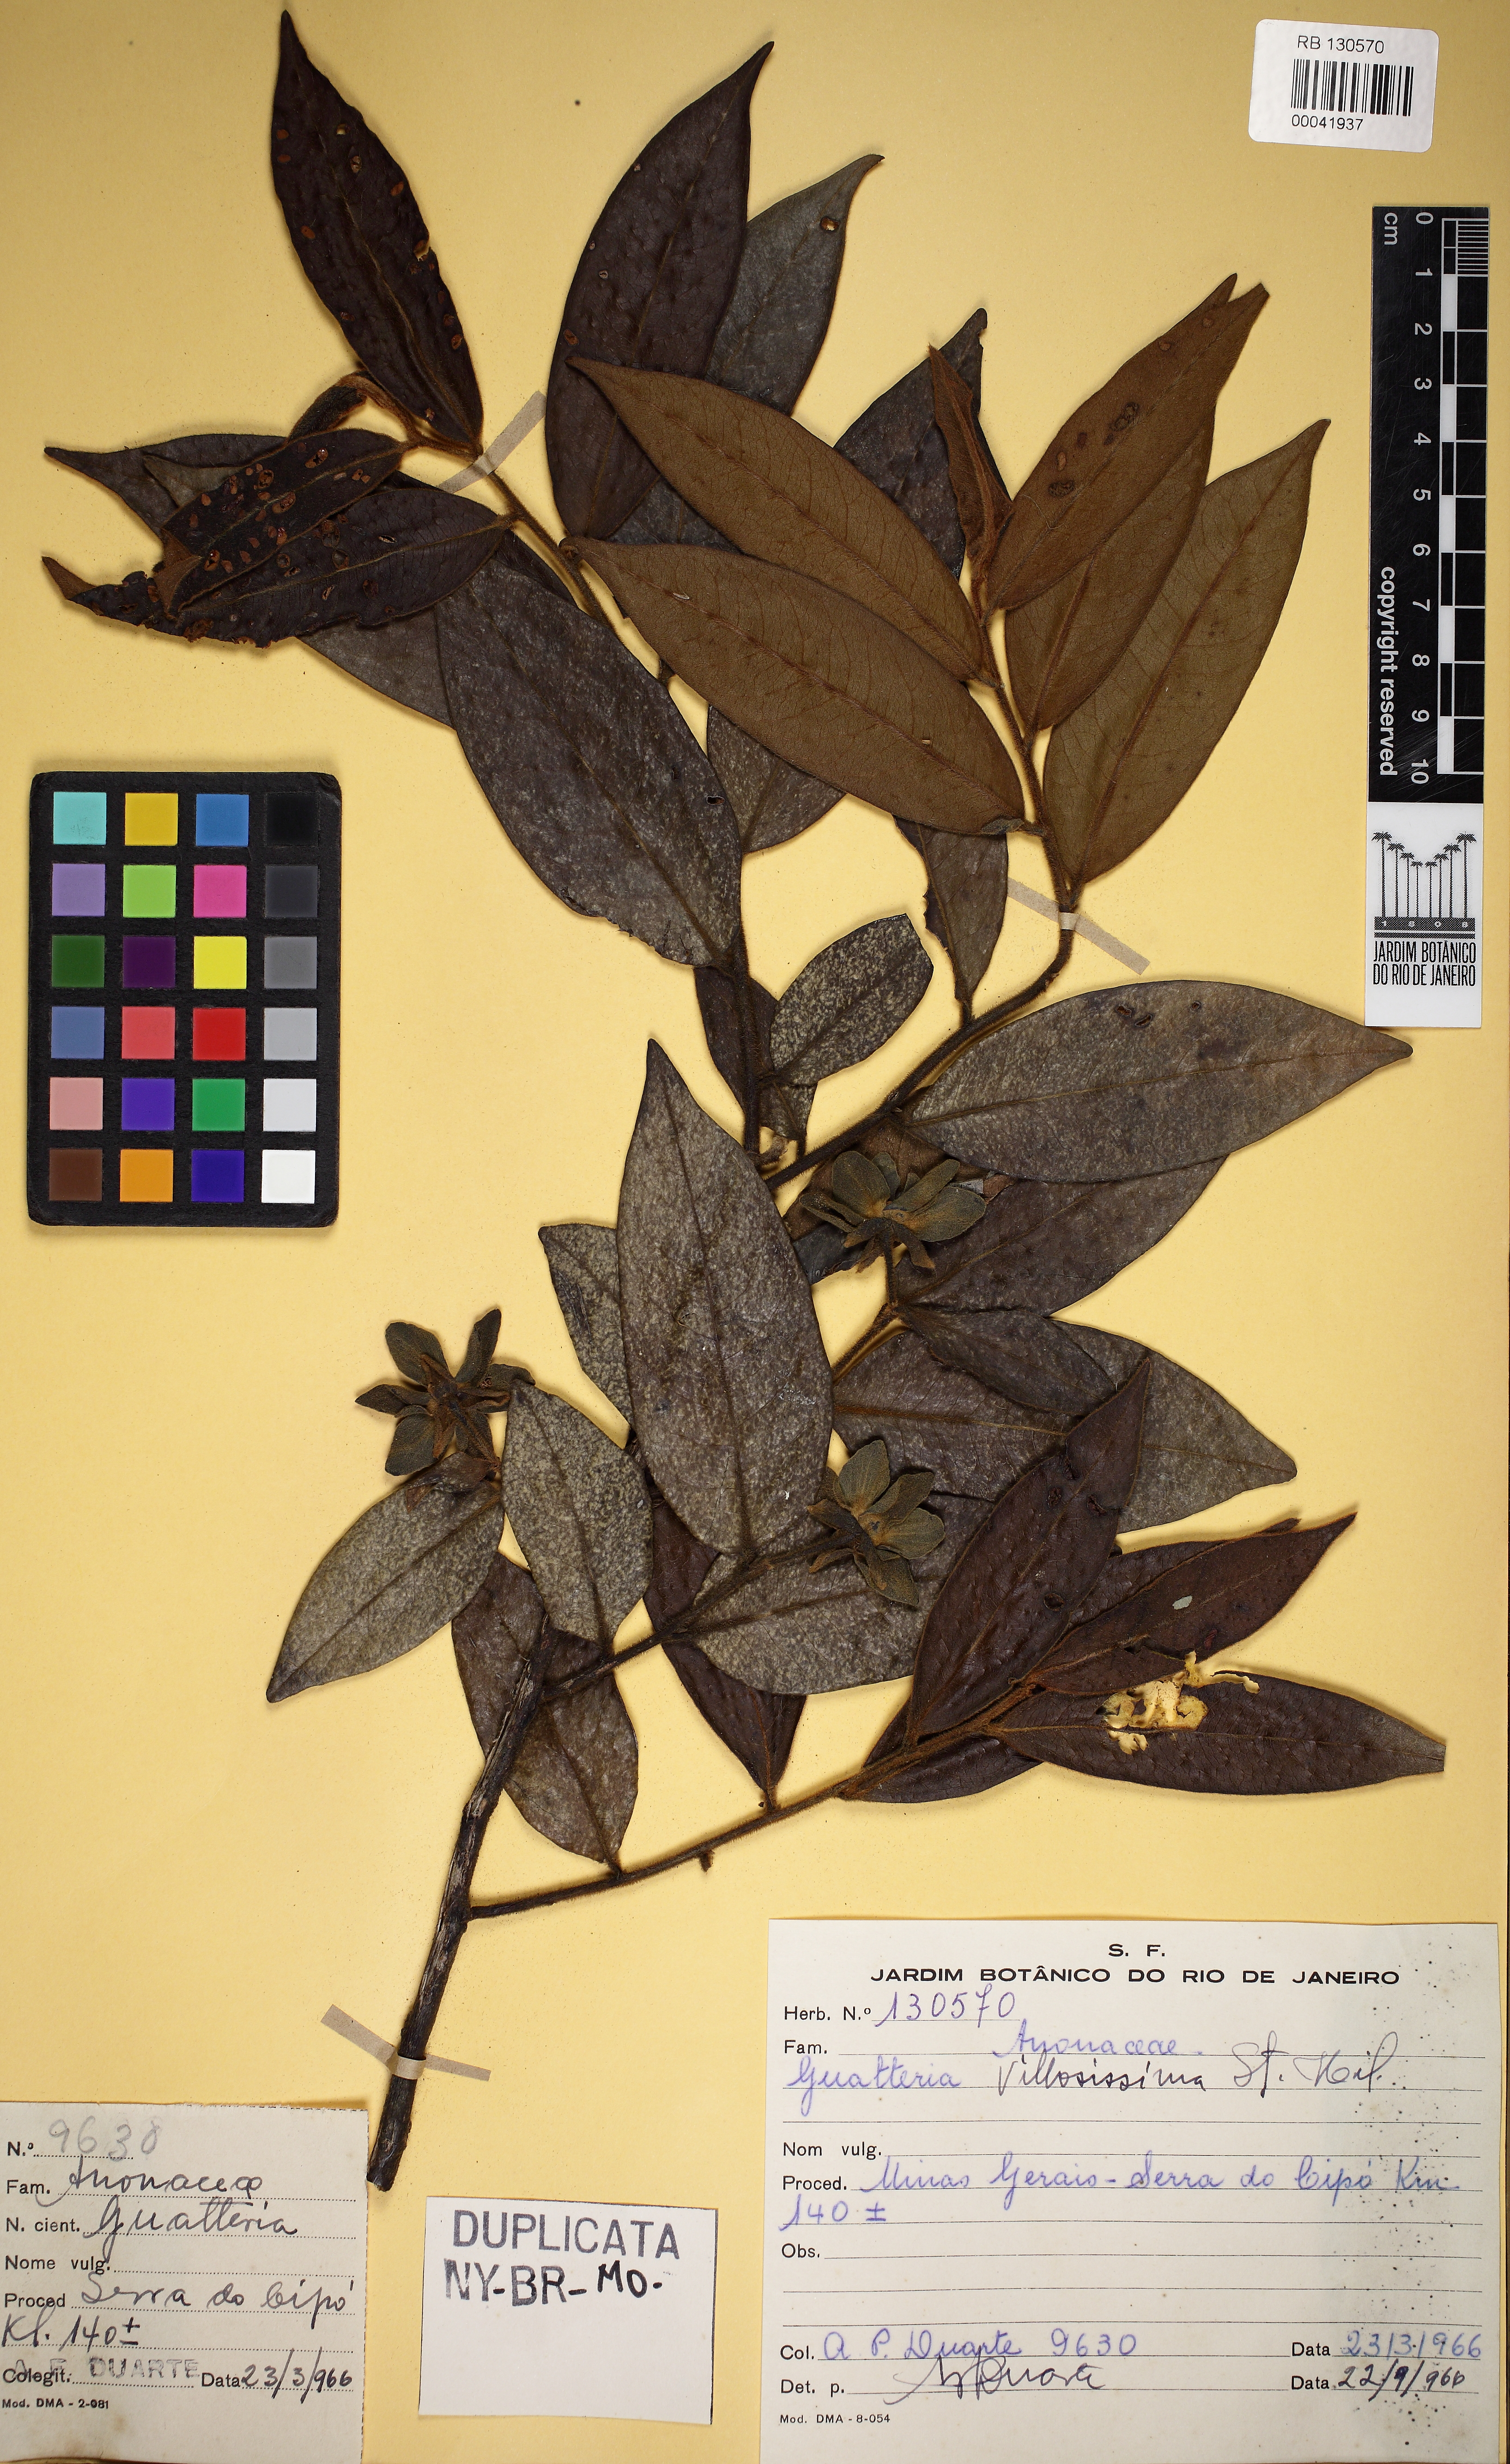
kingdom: Plantae
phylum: Tracheophyta
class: Magnoliopsida
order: Magnoliales
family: Annonaceae
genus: Guatteria
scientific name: Guatteria villosissima
